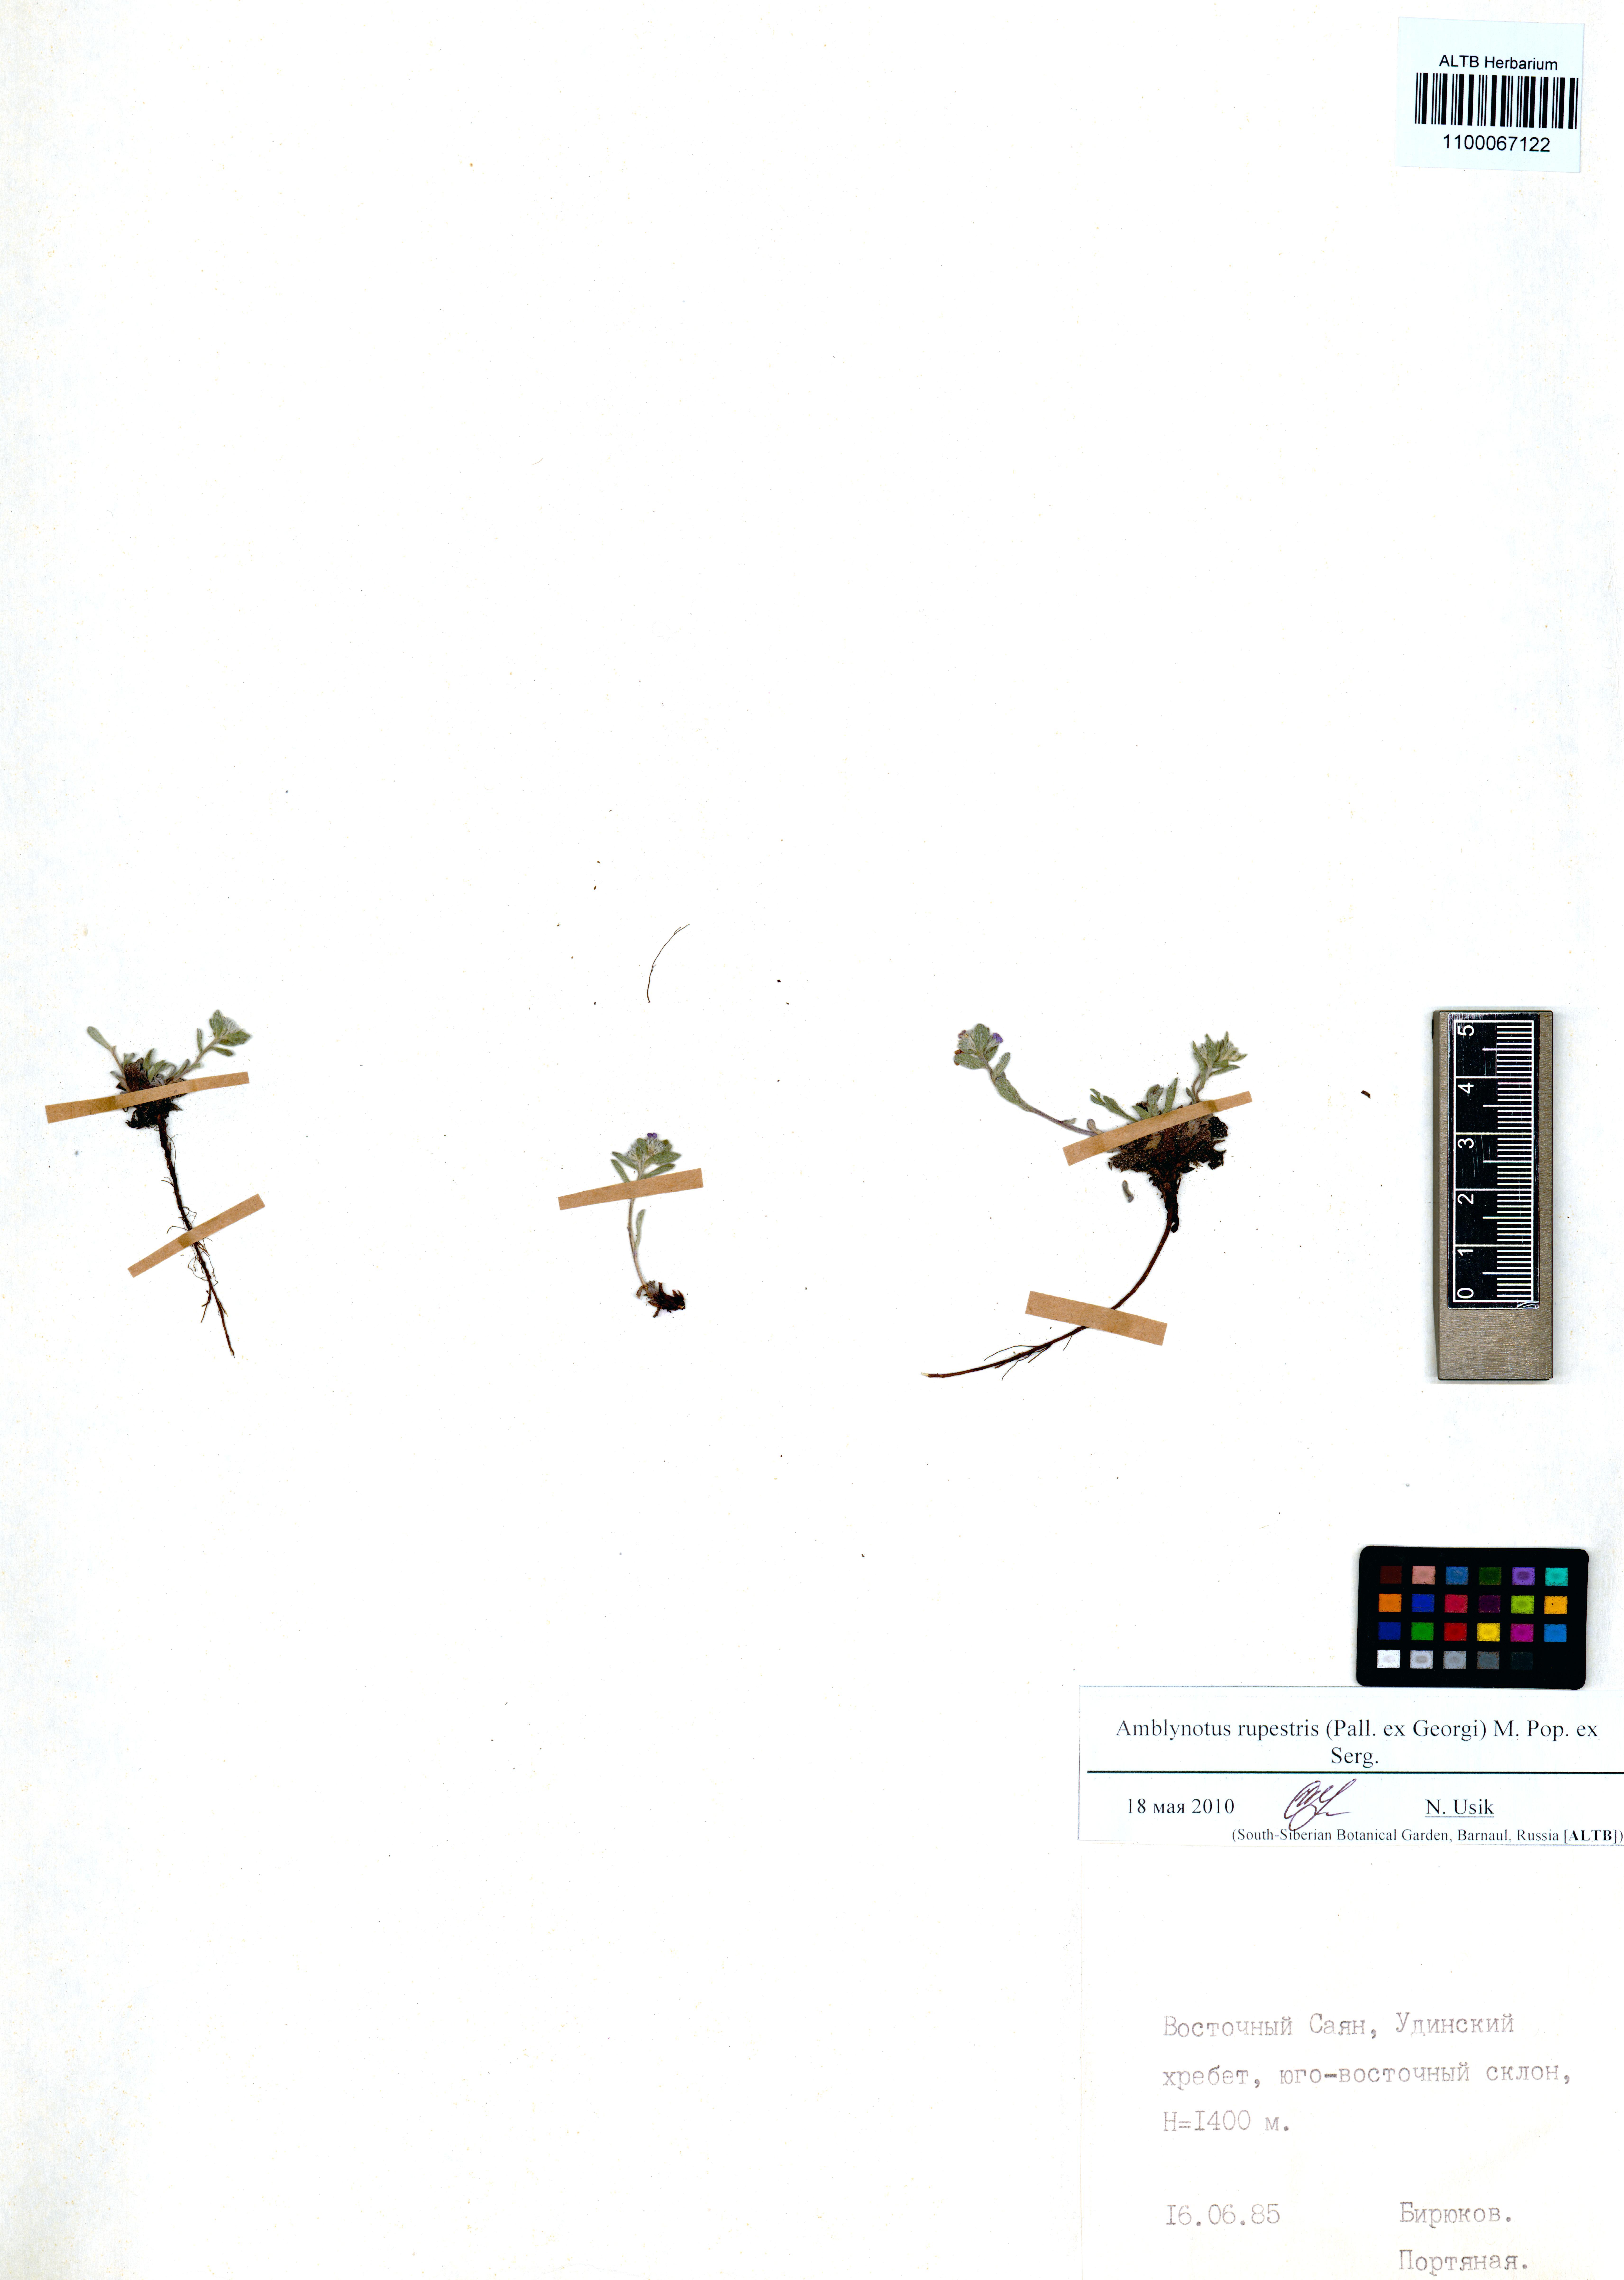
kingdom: Plantae
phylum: Tracheophyta
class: Magnoliopsida
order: Boraginales
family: Boraginaceae
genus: Eritrichium
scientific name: Eritrichium rupestre
